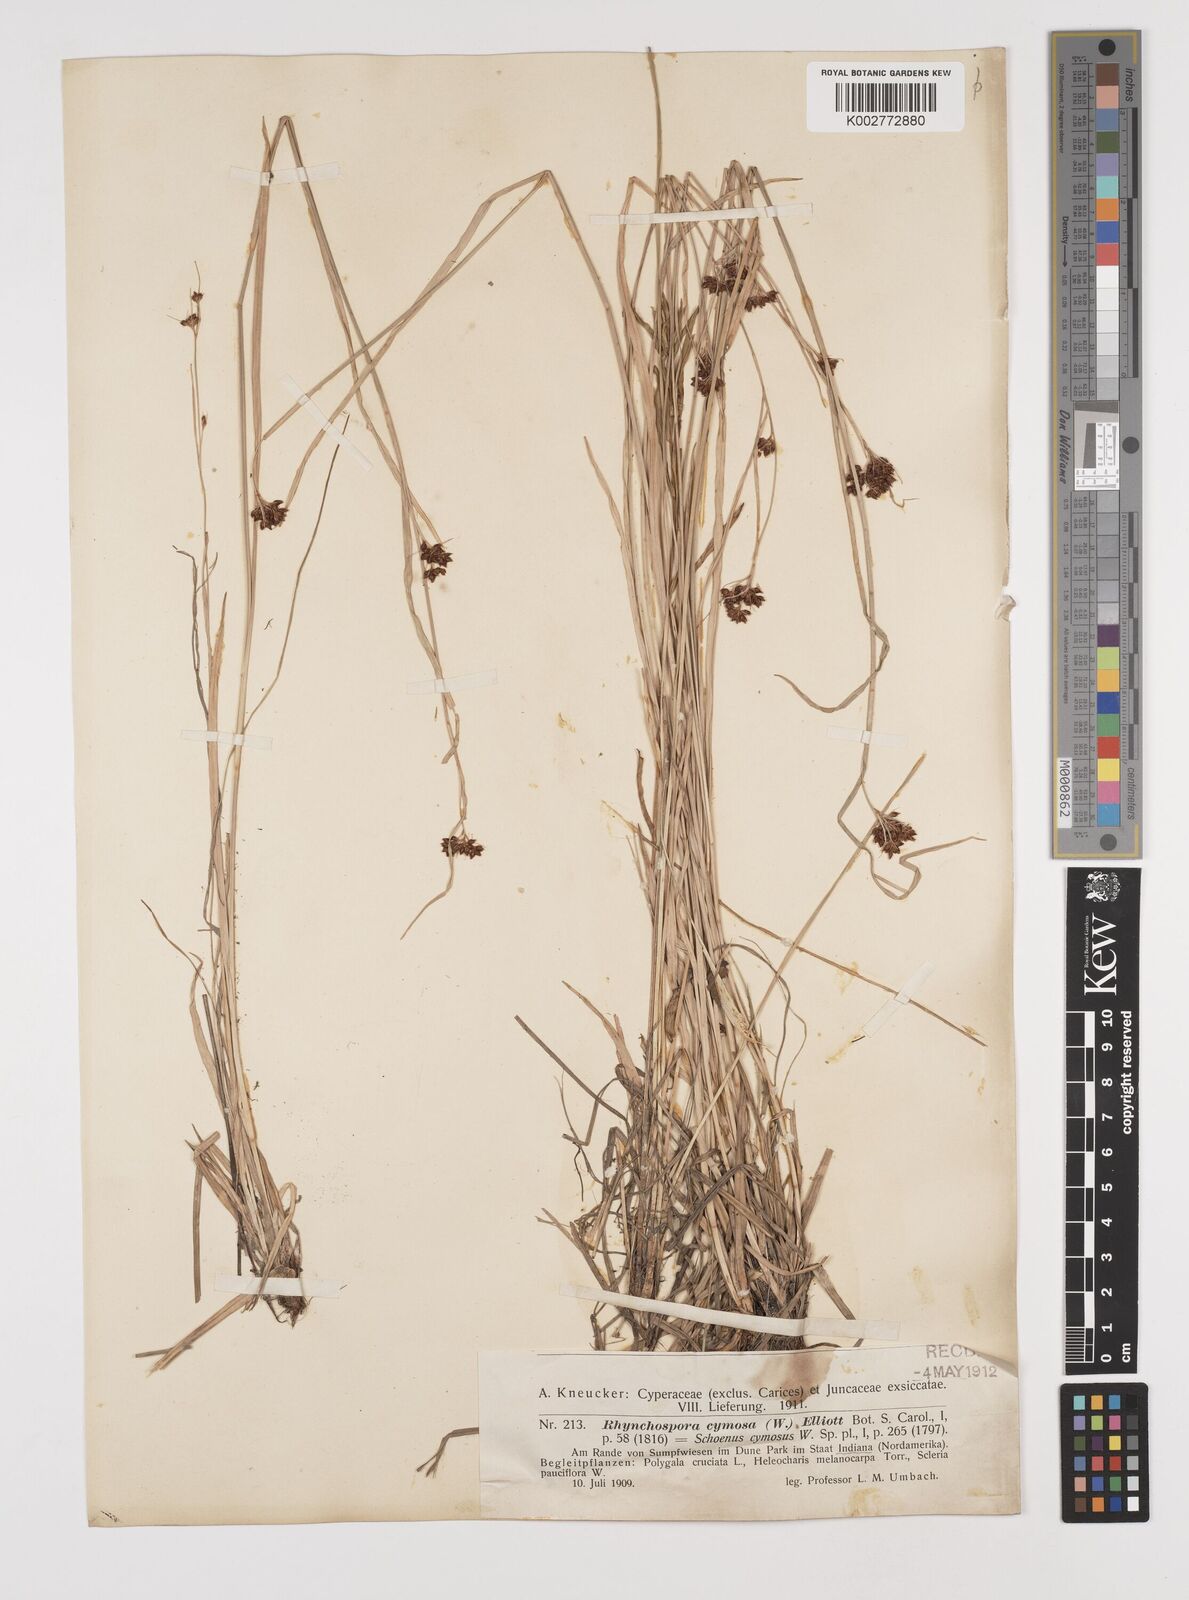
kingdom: Plantae
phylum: Tracheophyta
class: Liliopsida
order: Poales
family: Cyperaceae
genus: Scirpus
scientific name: Scirpus polyphyllus
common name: Leafy bulrush
